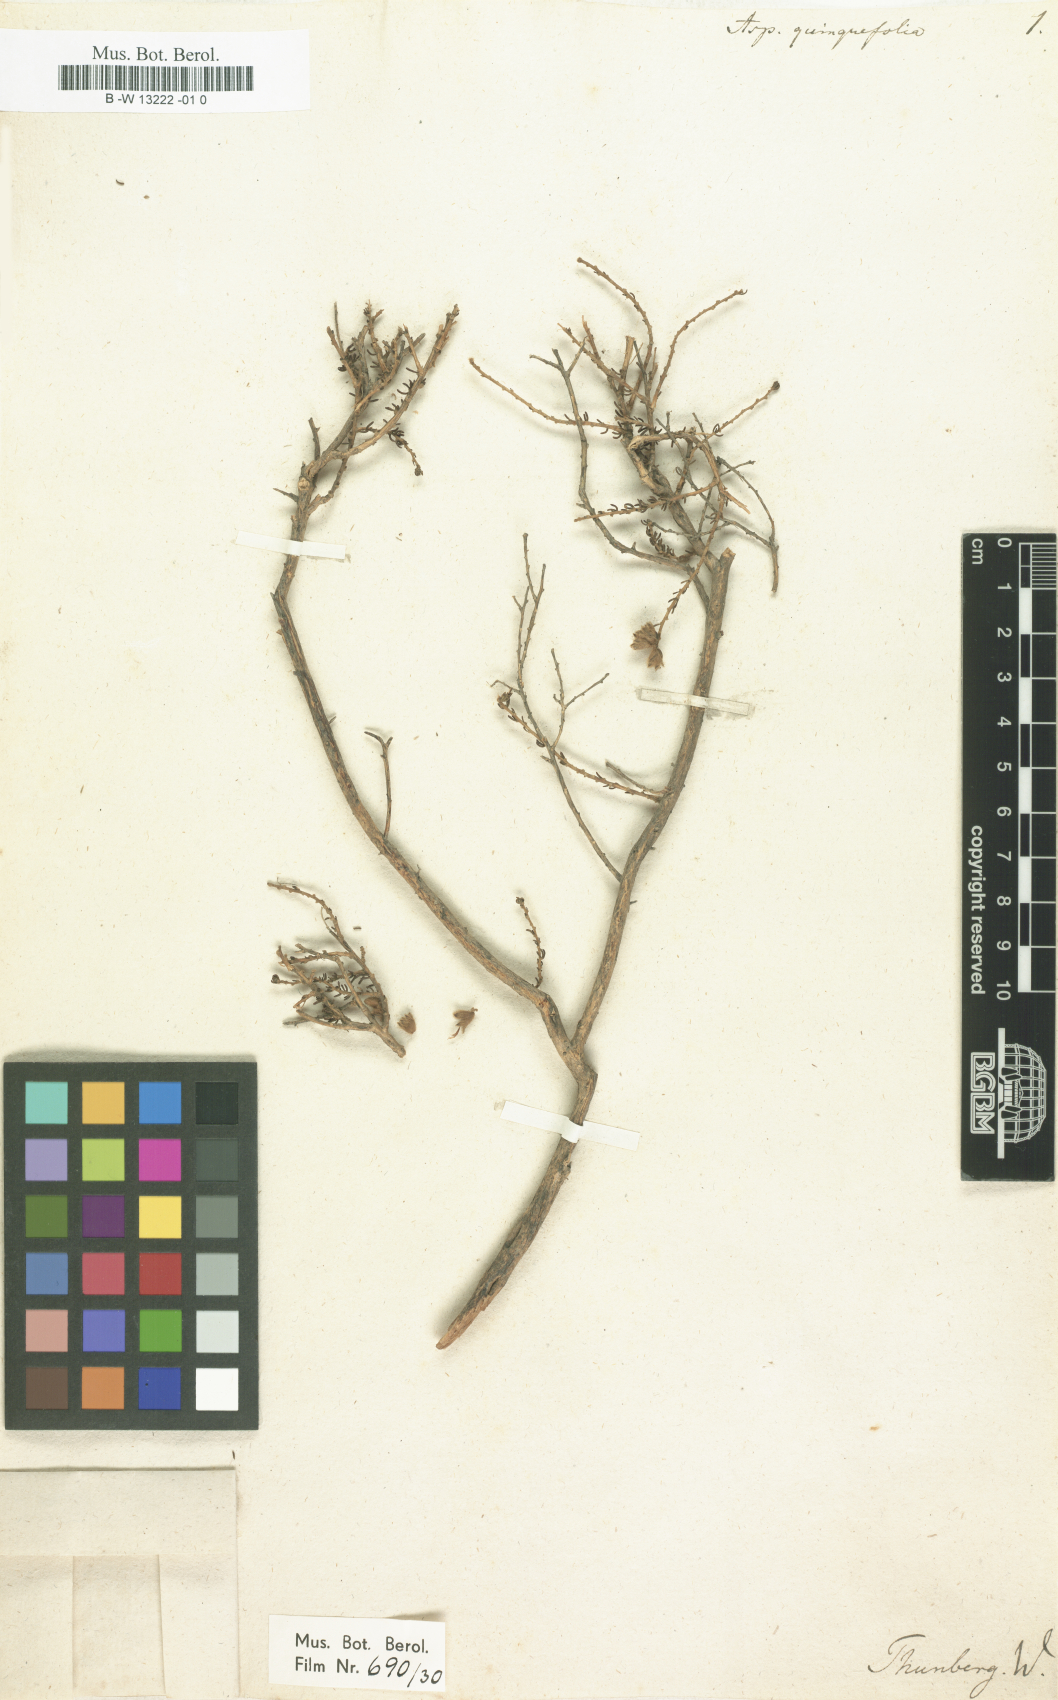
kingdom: Plantae
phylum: Tracheophyta
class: Magnoliopsida
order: Fabales
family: Fabaceae
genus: Aspalathus
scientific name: Aspalathus quinquefolia
